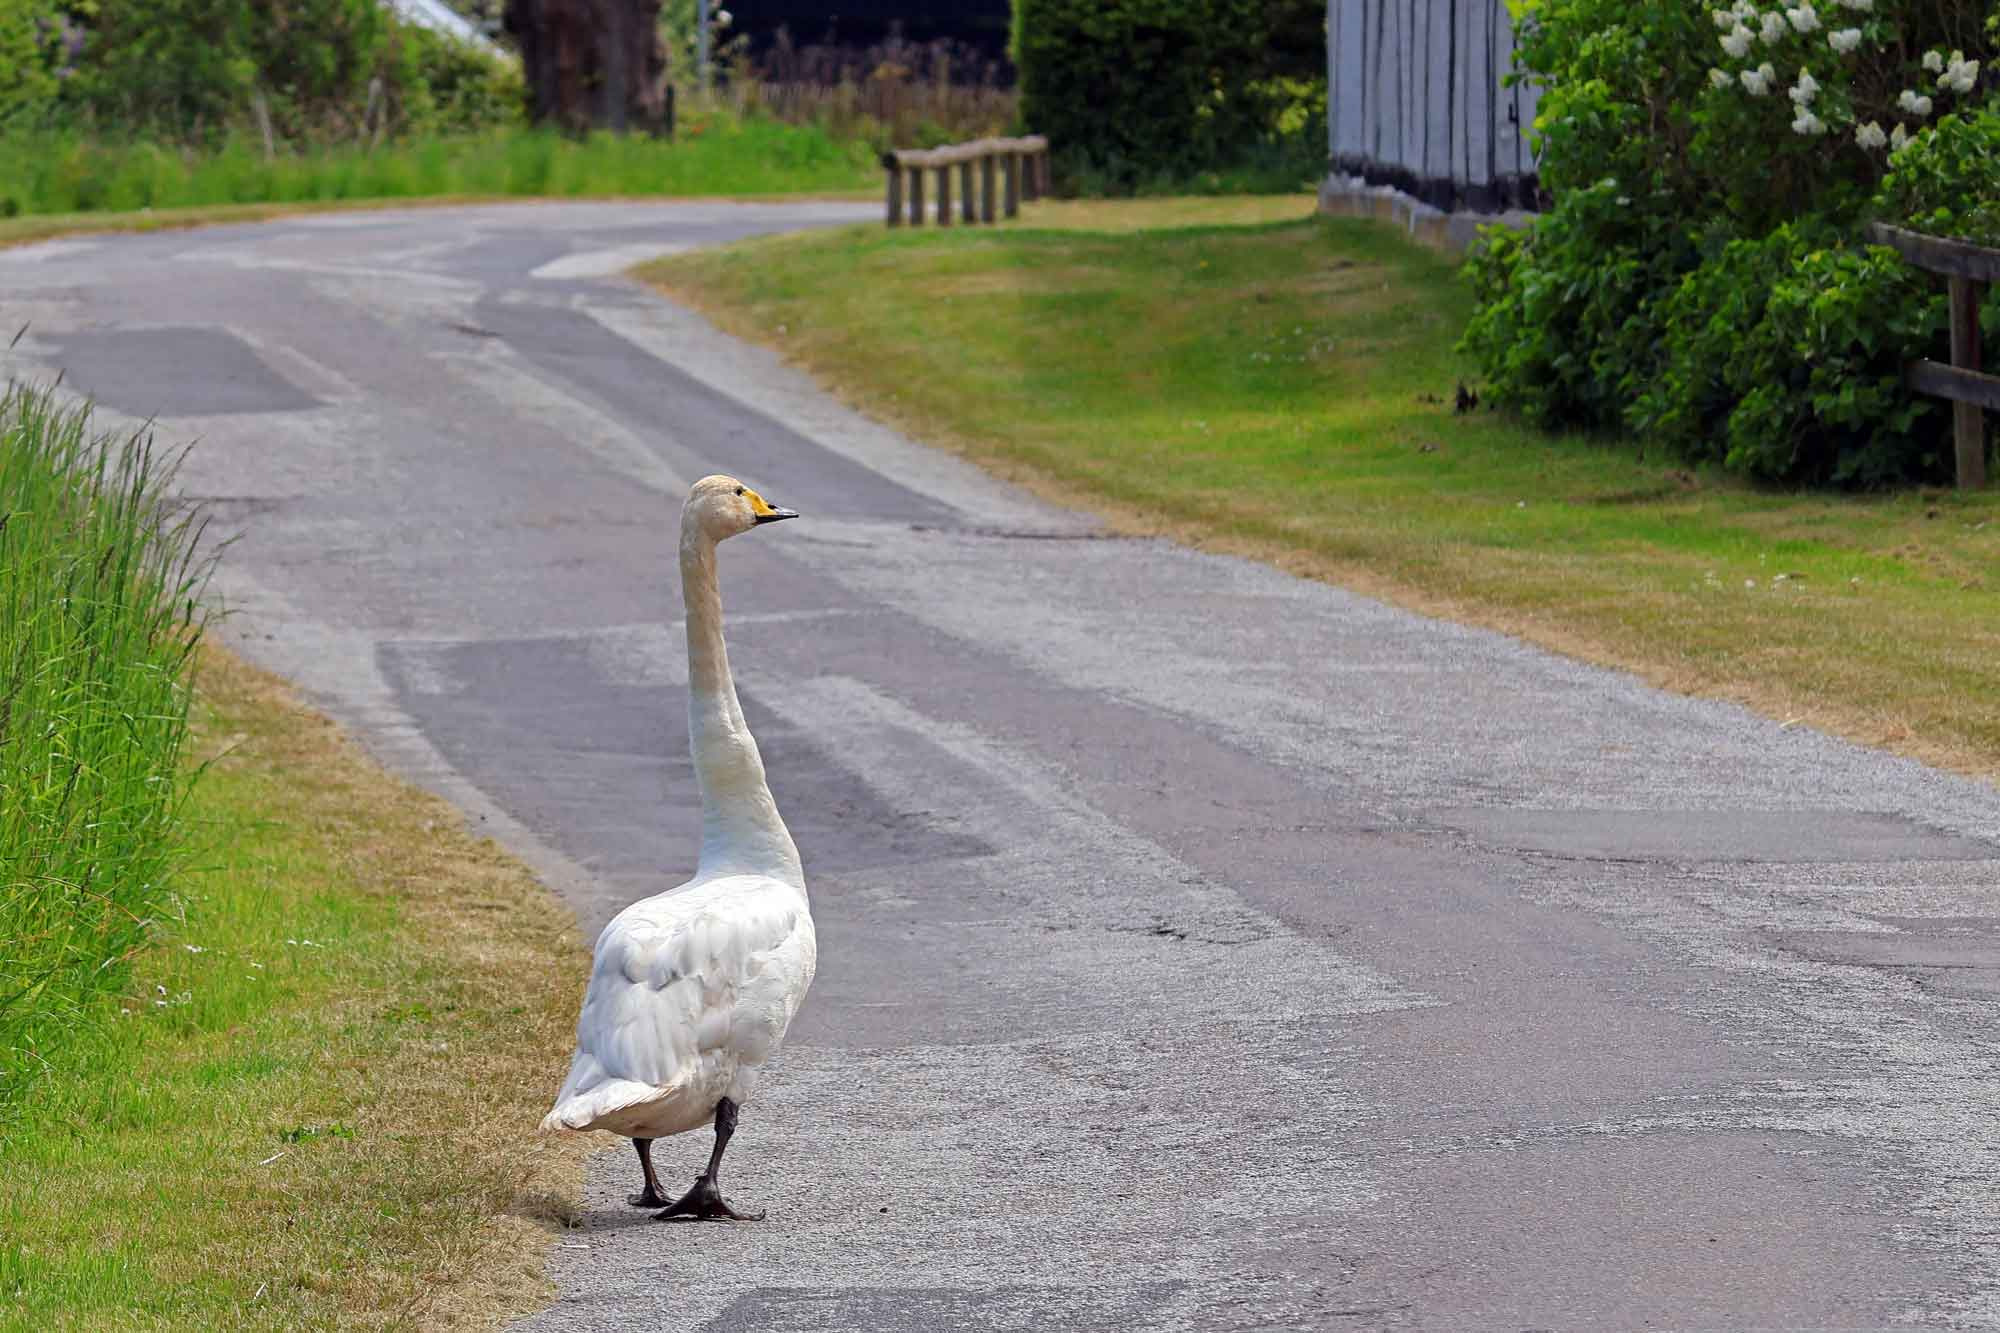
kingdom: Animalia
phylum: Chordata
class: Aves
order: Anseriformes
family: Anatidae
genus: Cygnus
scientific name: Cygnus cygnus
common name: Sangsvane
